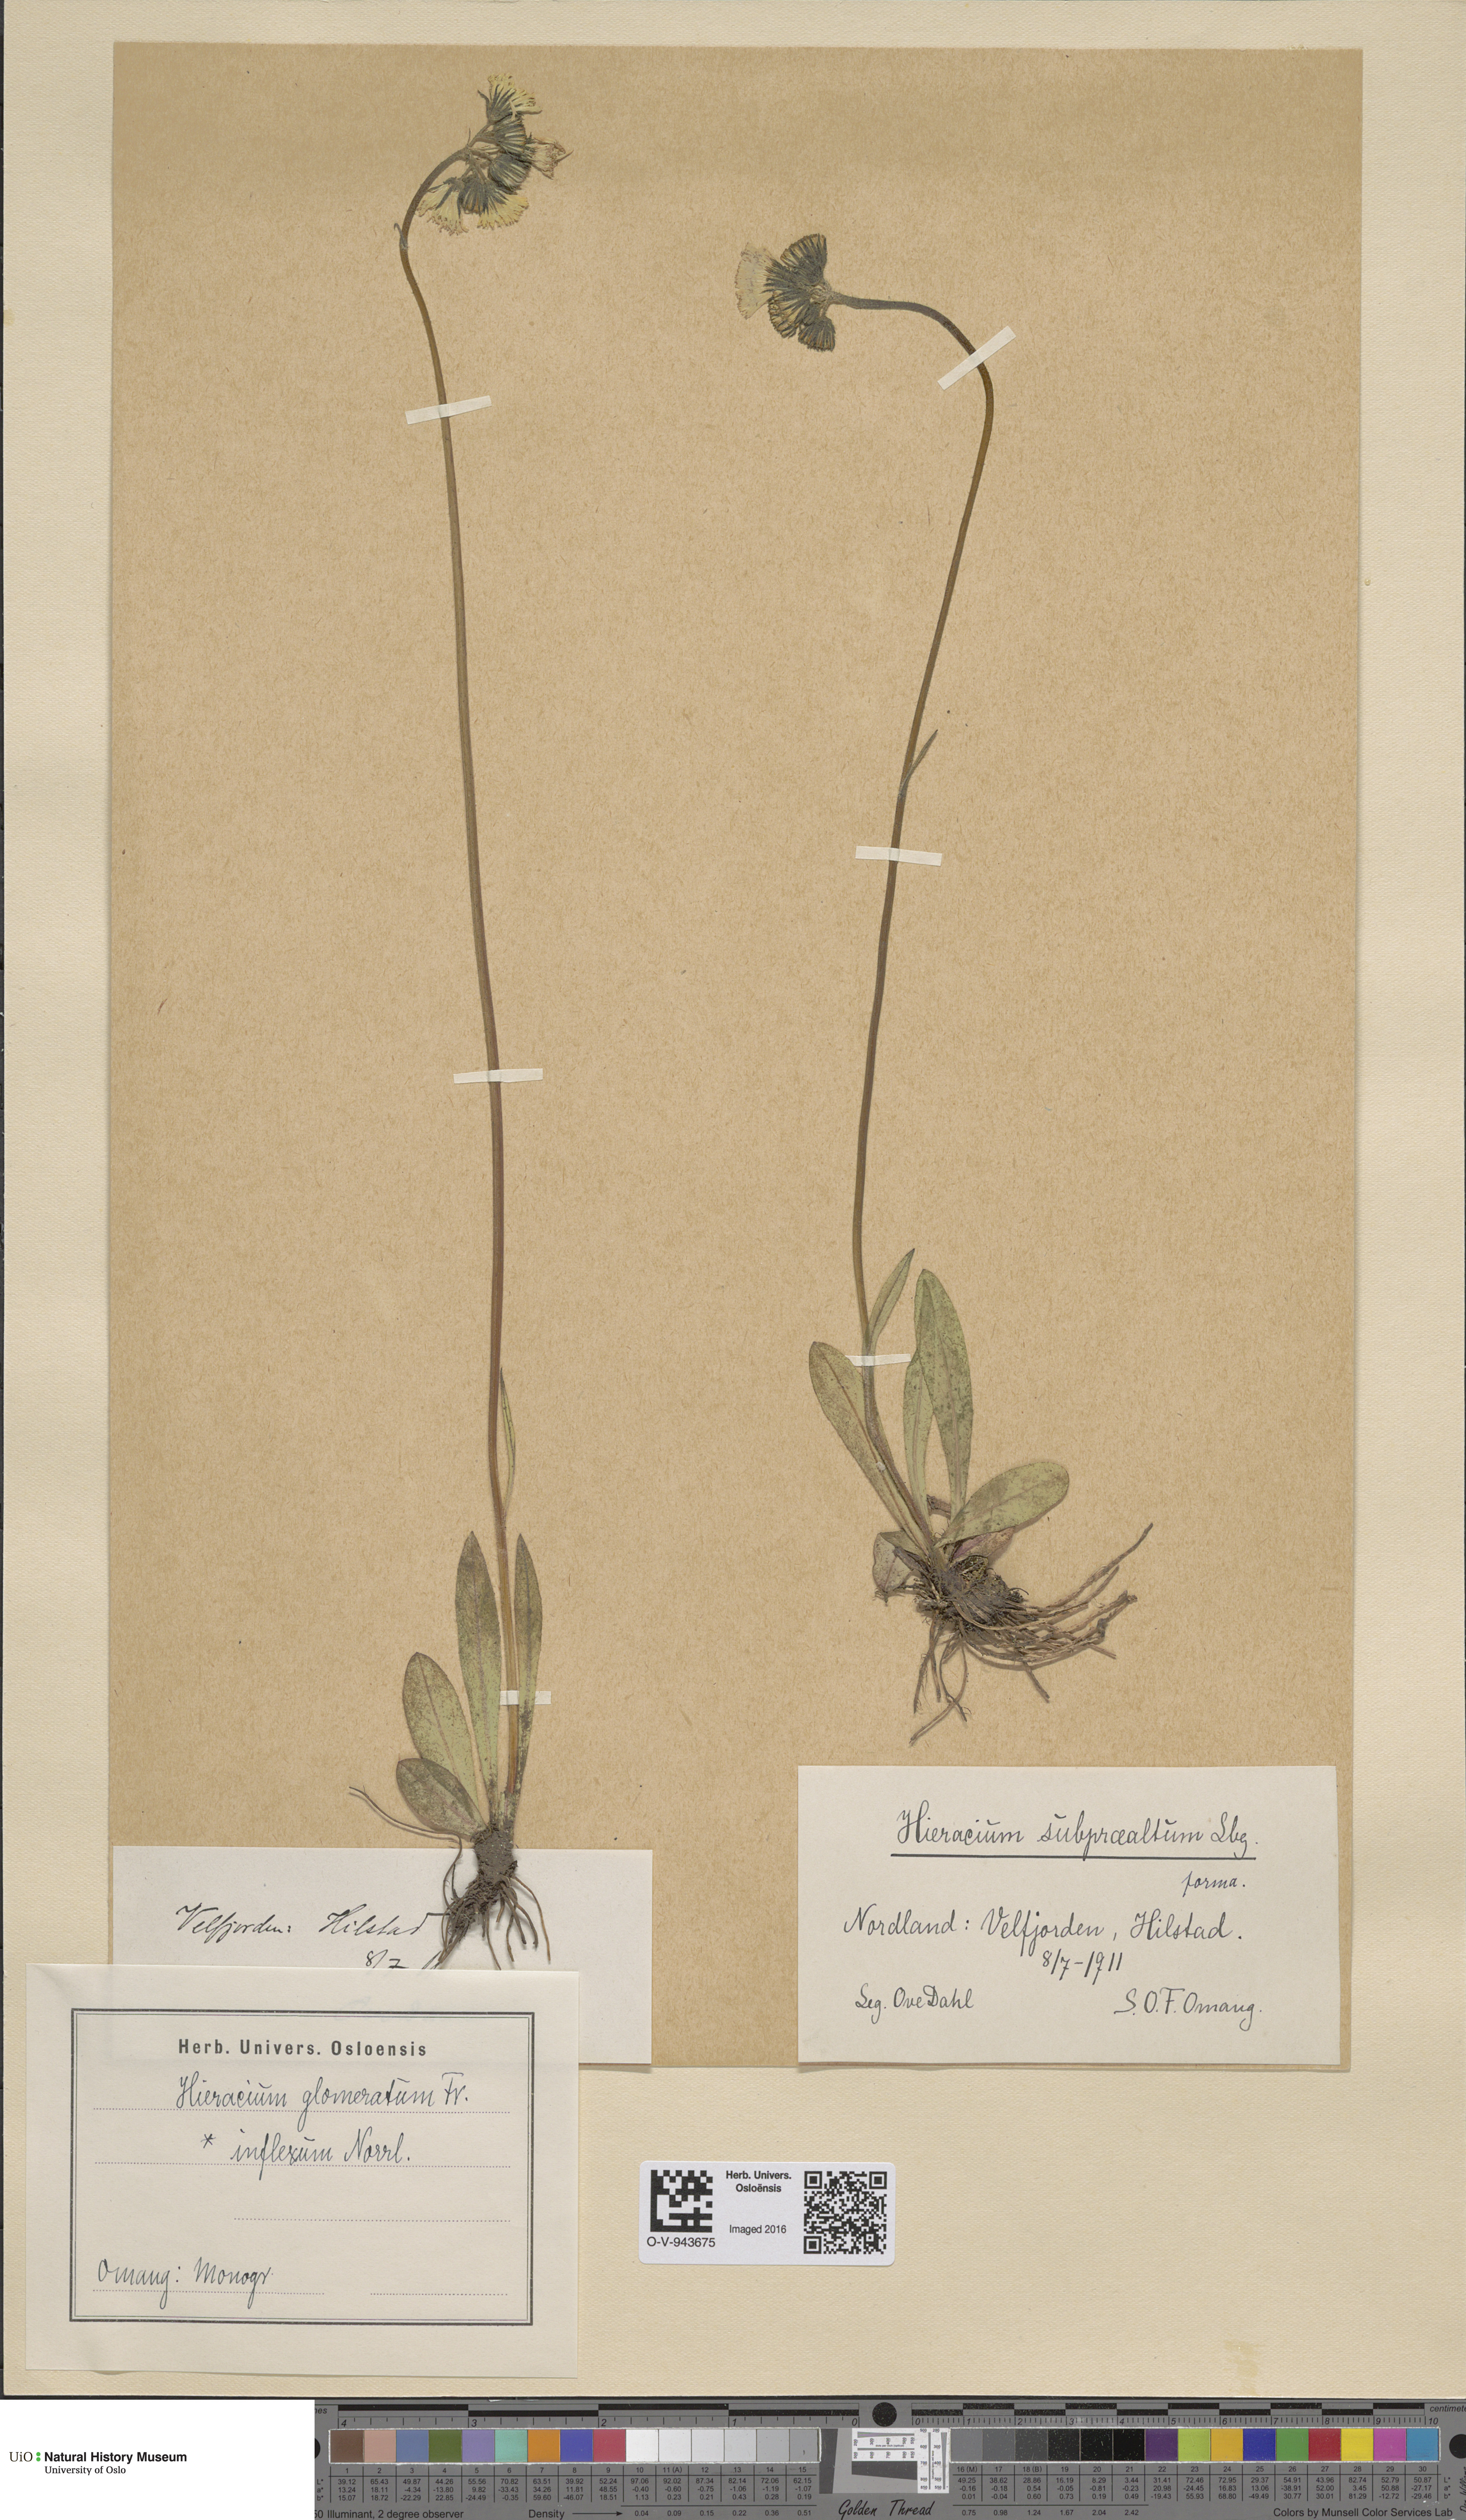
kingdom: Plantae
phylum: Tracheophyta
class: Magnoliopsida
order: Asterales
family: Asteraceae
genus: Pilosella
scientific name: Pilosella glomerata
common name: Queen devil hawkweed
